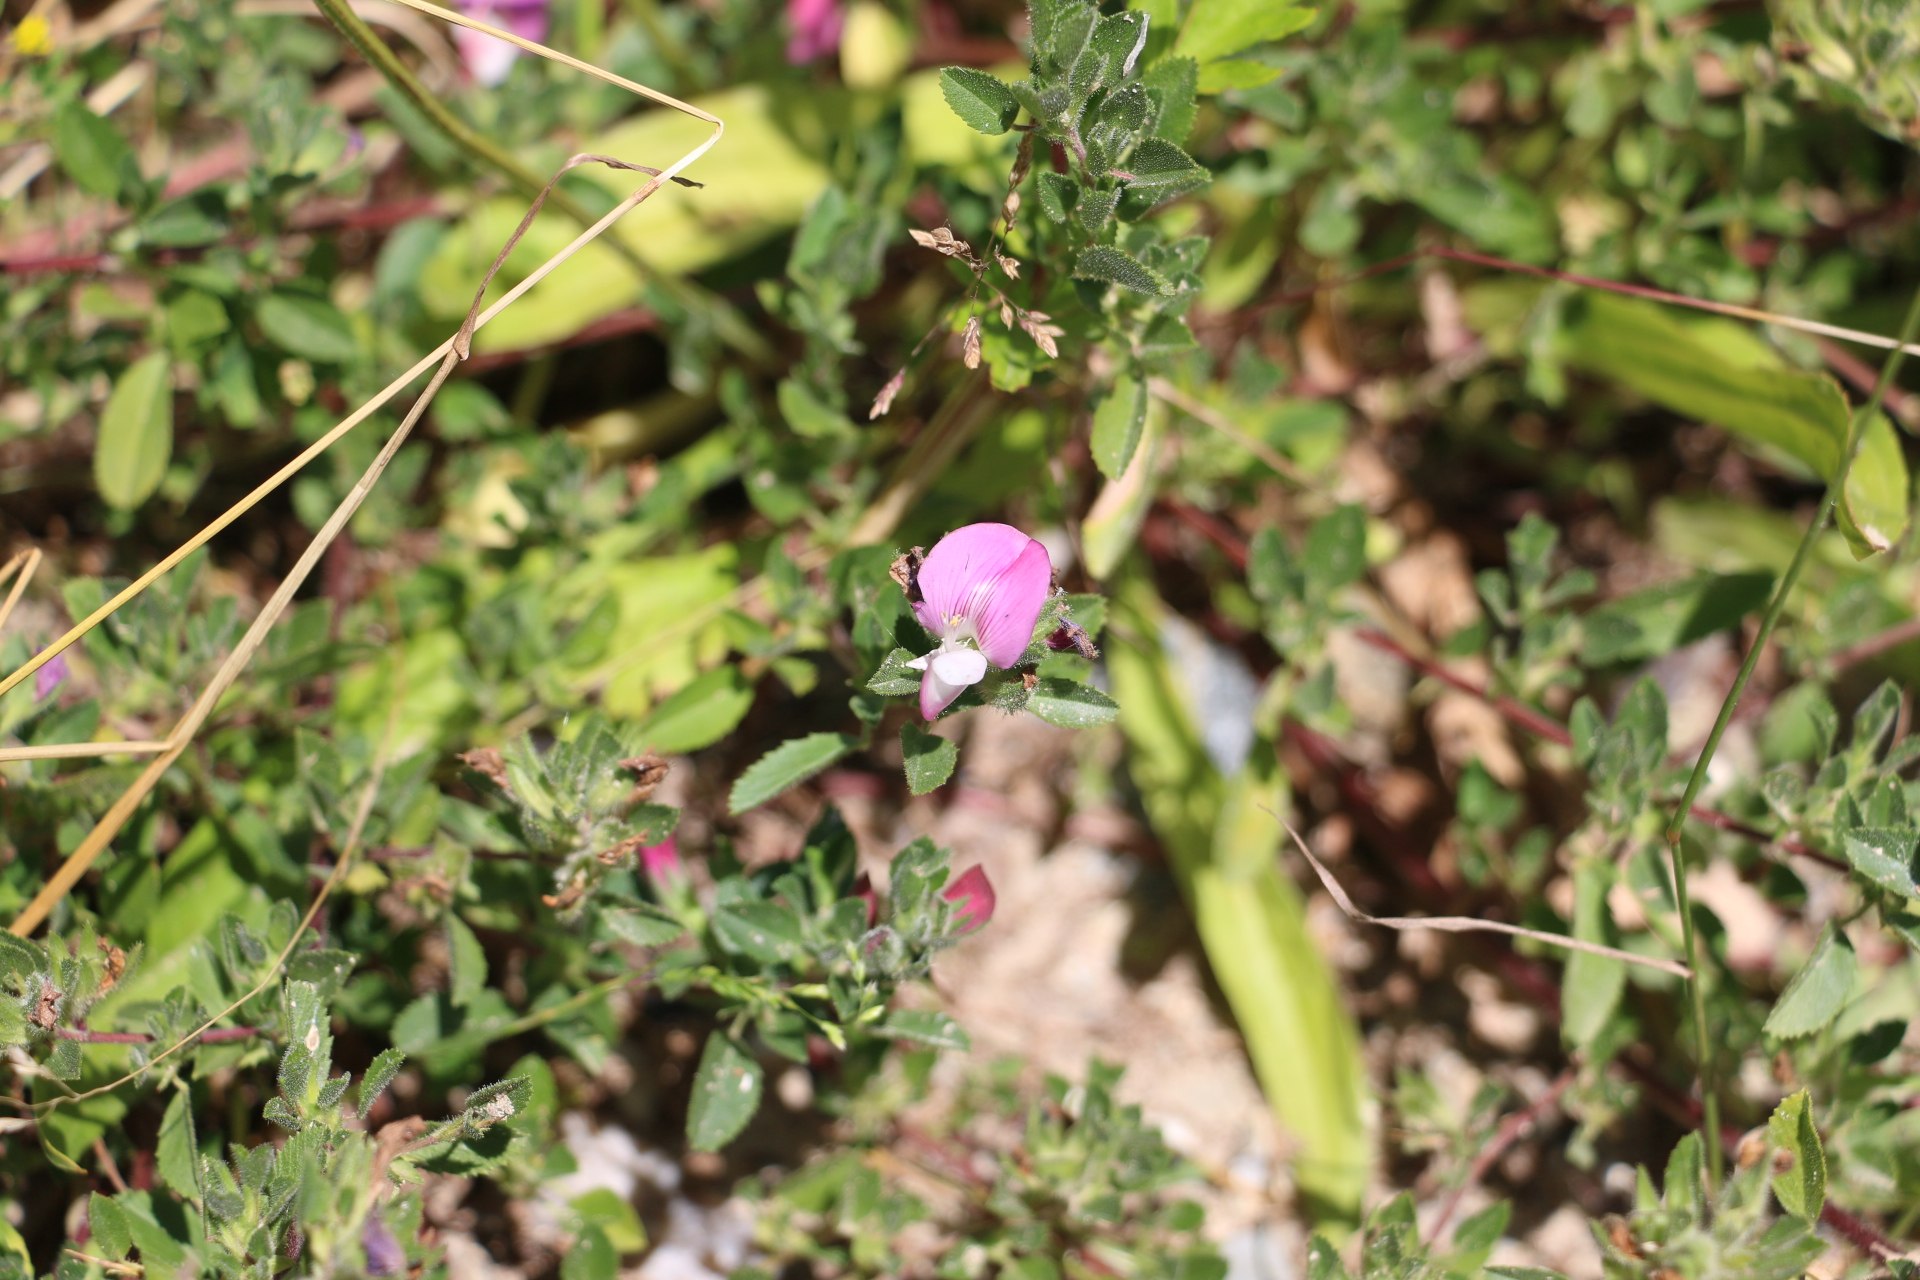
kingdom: Plantae
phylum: Tracheophyta
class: Magnoliopsida
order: Fabales
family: Fabaceae
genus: Ononis
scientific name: Ononis spinosa
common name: Mark-krageklo
